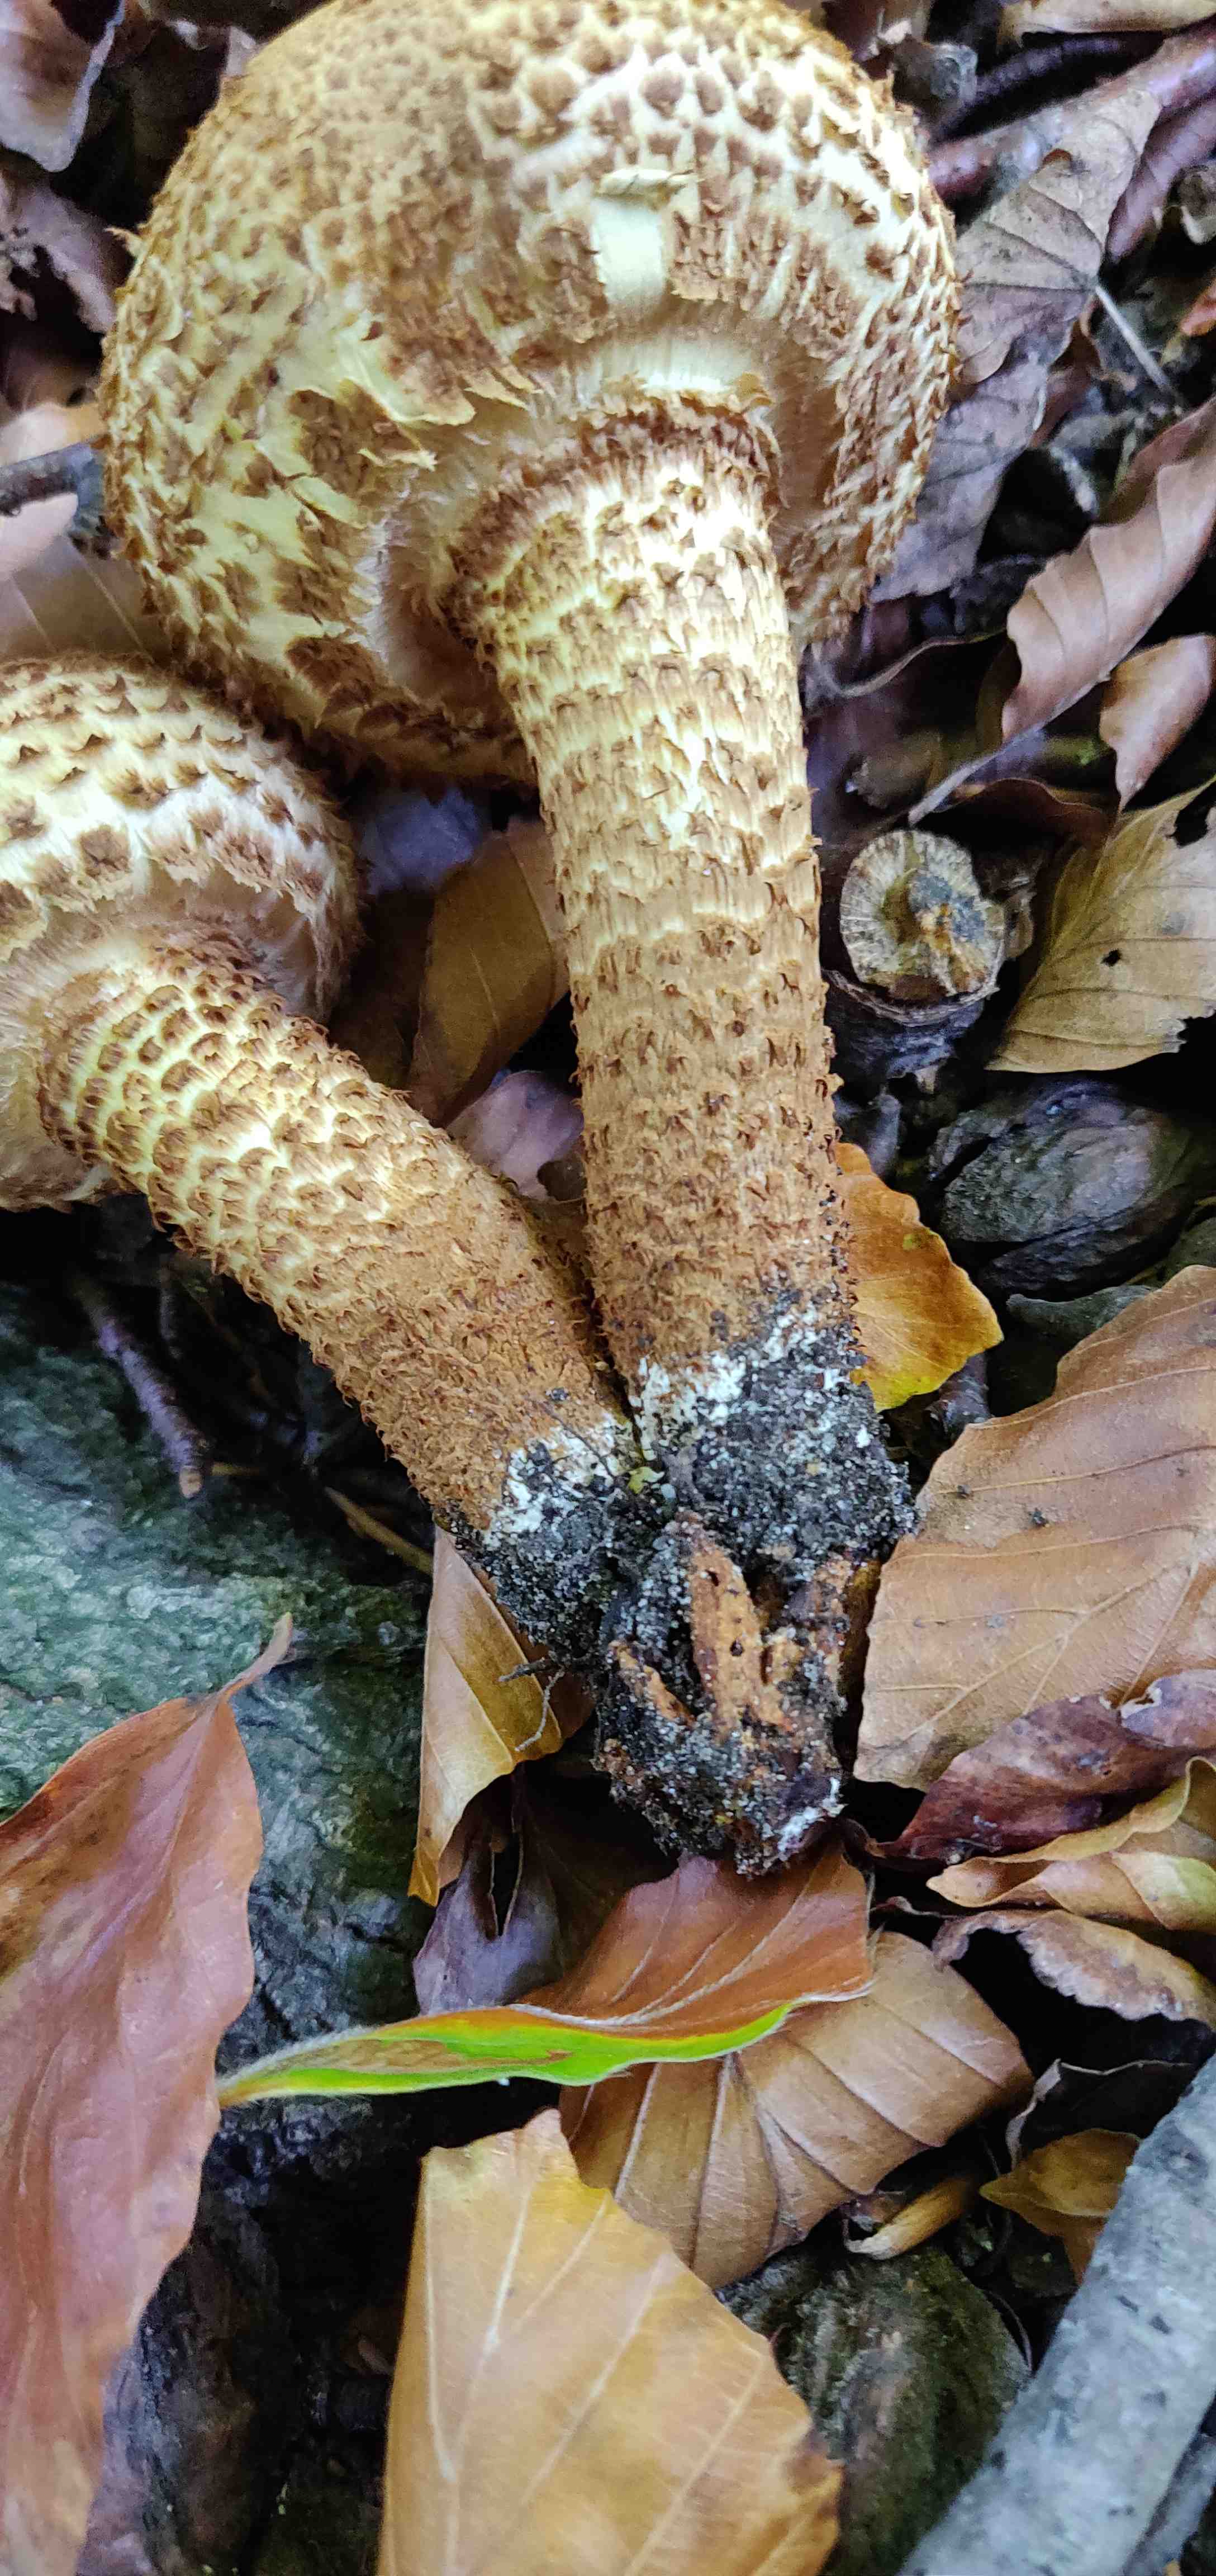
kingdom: Fungi
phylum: Basidiomycota
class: Agaricomycetes
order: Agaricales
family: Strophariaceae
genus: Pholiota
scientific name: Pholiota squarrosa
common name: krumskællet skælhat
